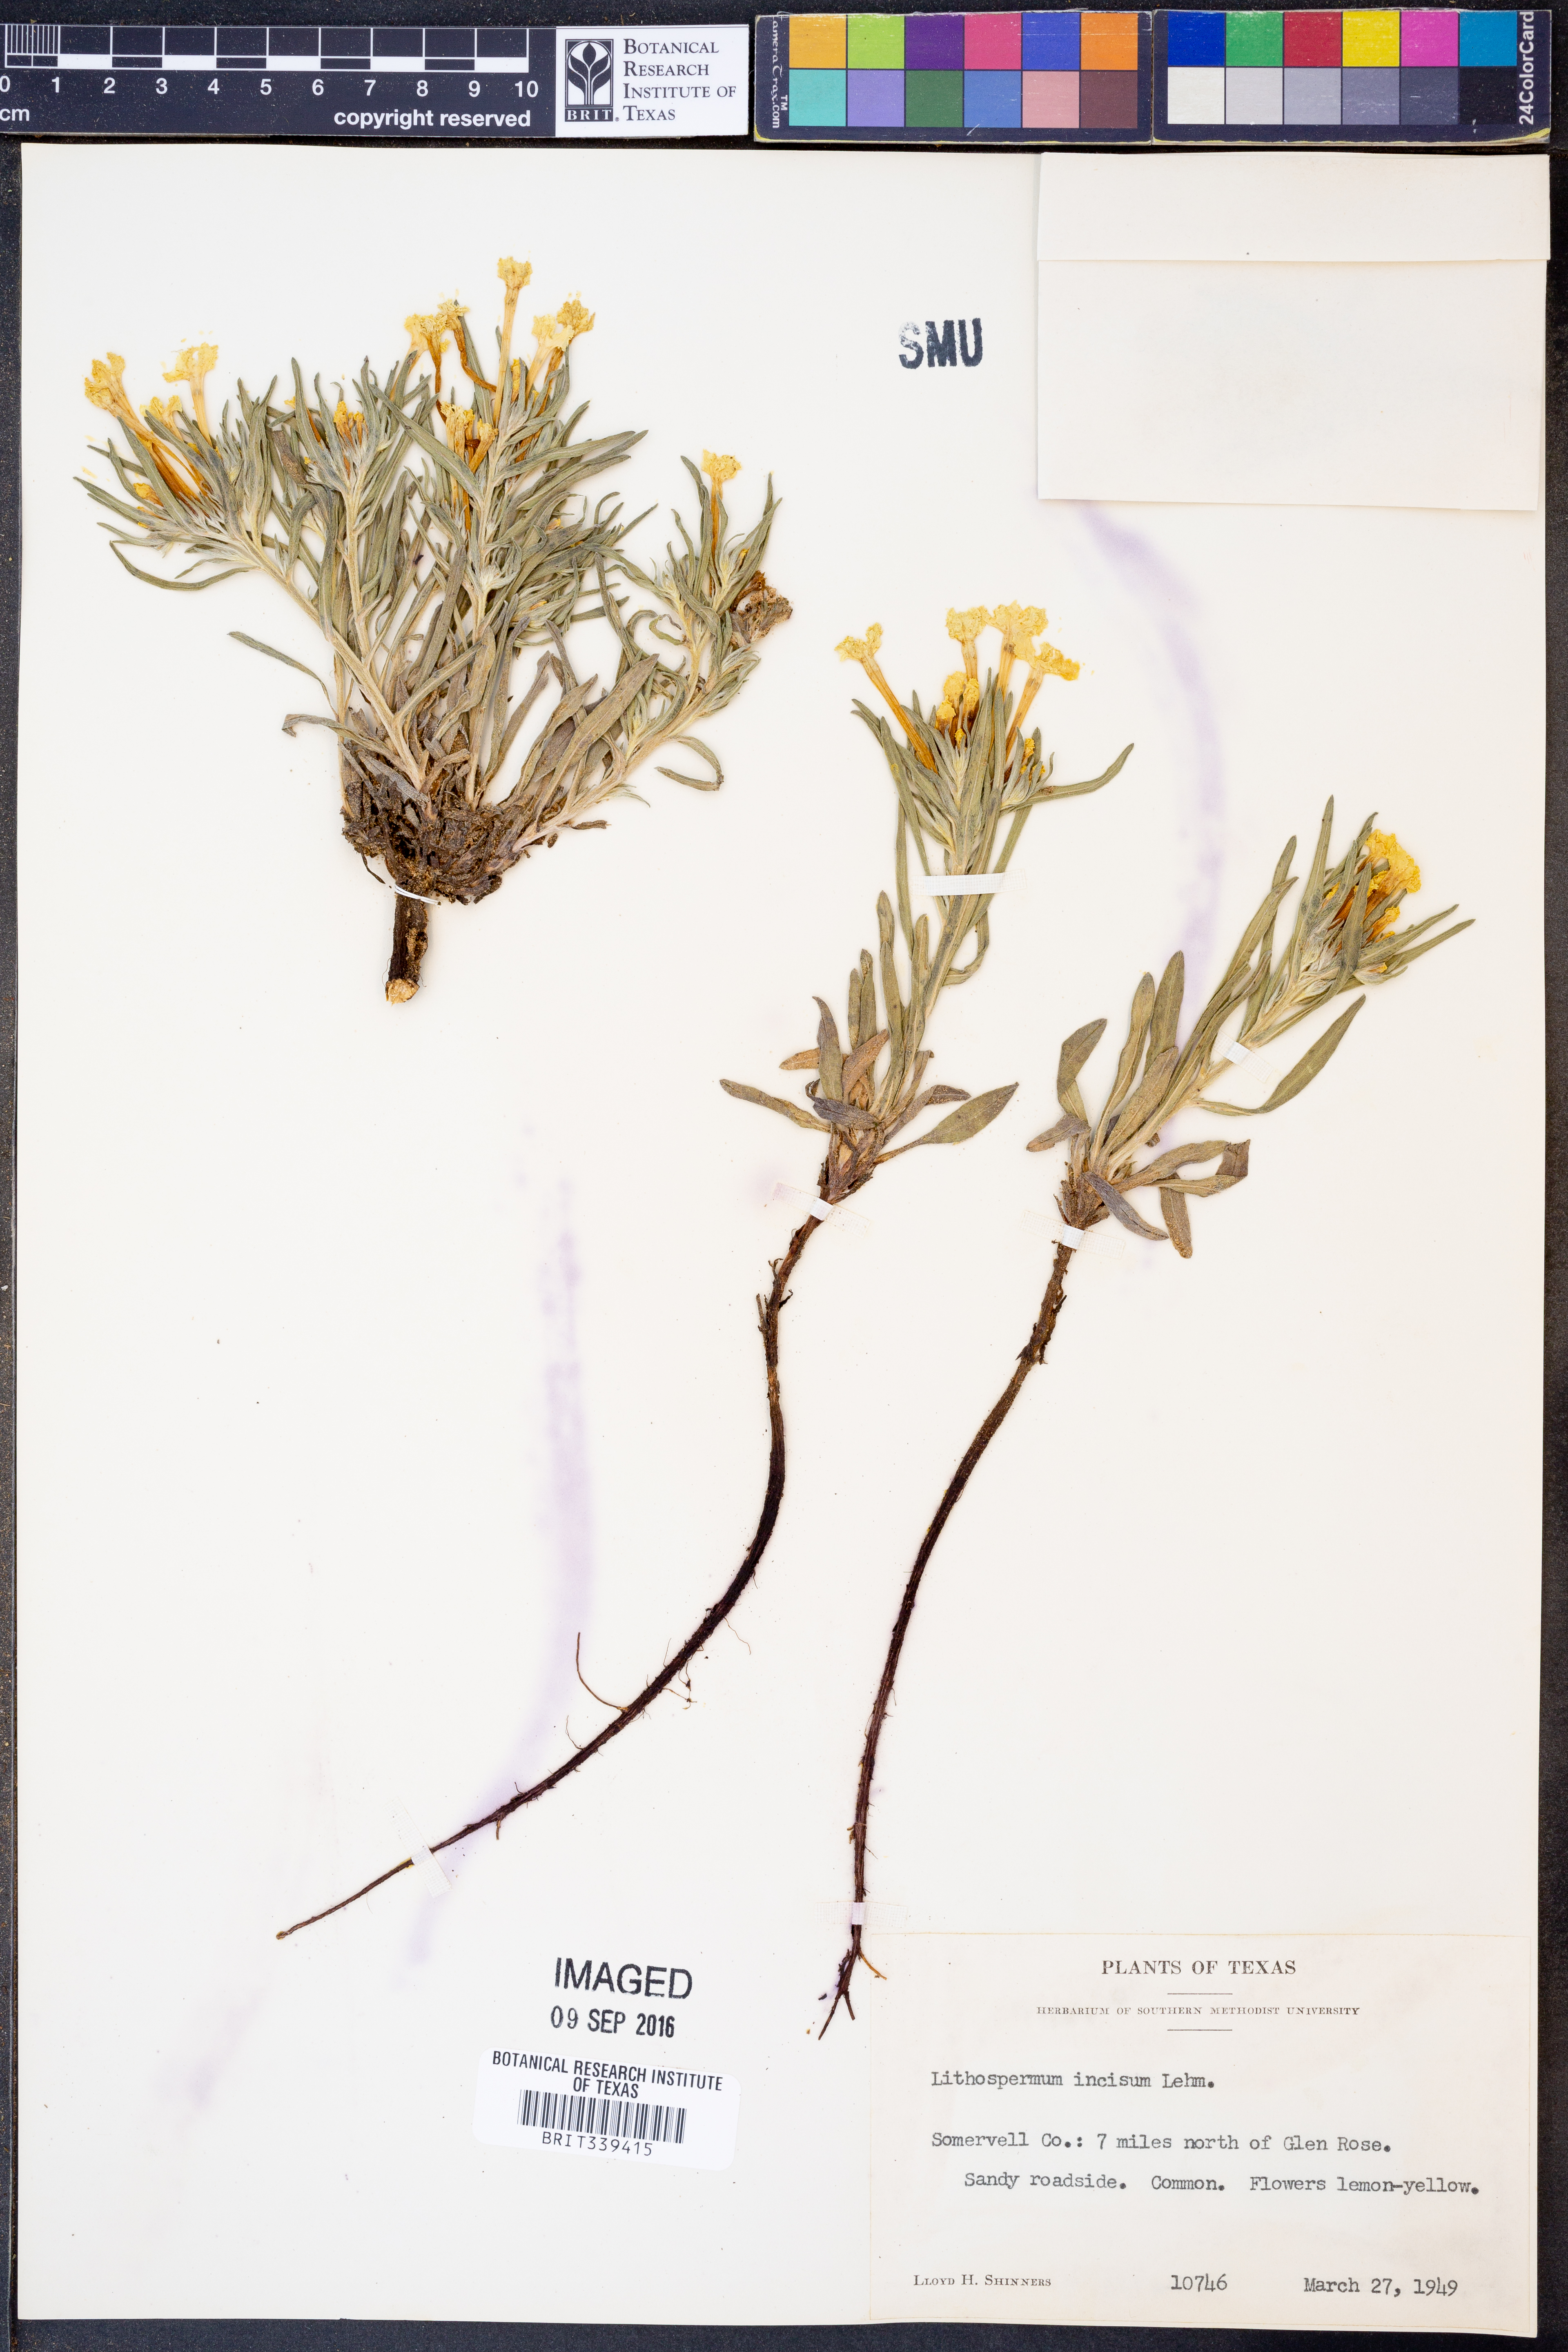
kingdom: Plantae
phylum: Tracheophyta
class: Magnoliopsida
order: Boraginales
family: Boraginaceae
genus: Lithospermum
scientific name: Lithospermum incisum
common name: Fringed gromwell
